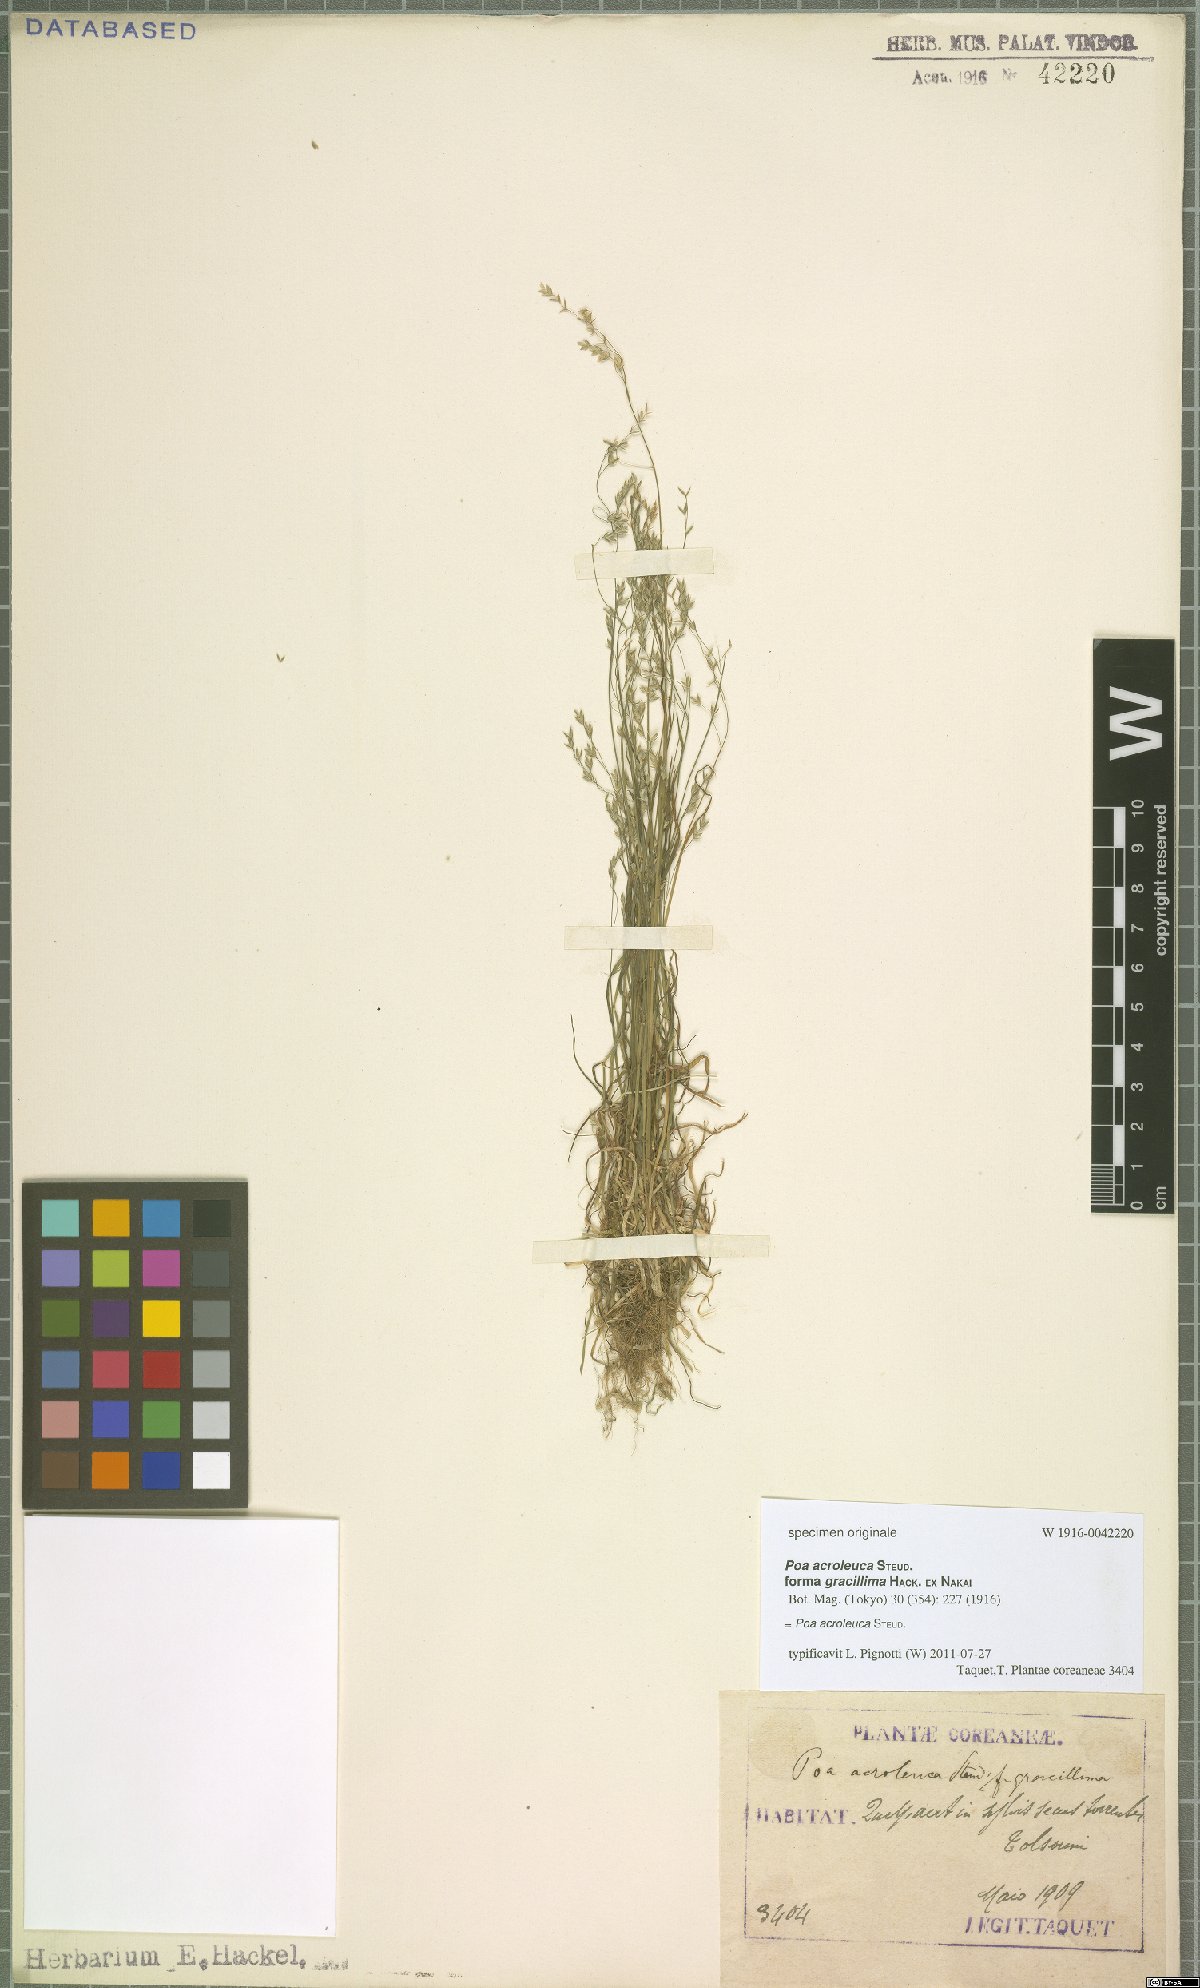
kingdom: Plantae
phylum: Tracheophyta
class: Liliopsida
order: Poales
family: Poaceae
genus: Poa
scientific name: Poa acroleuca
